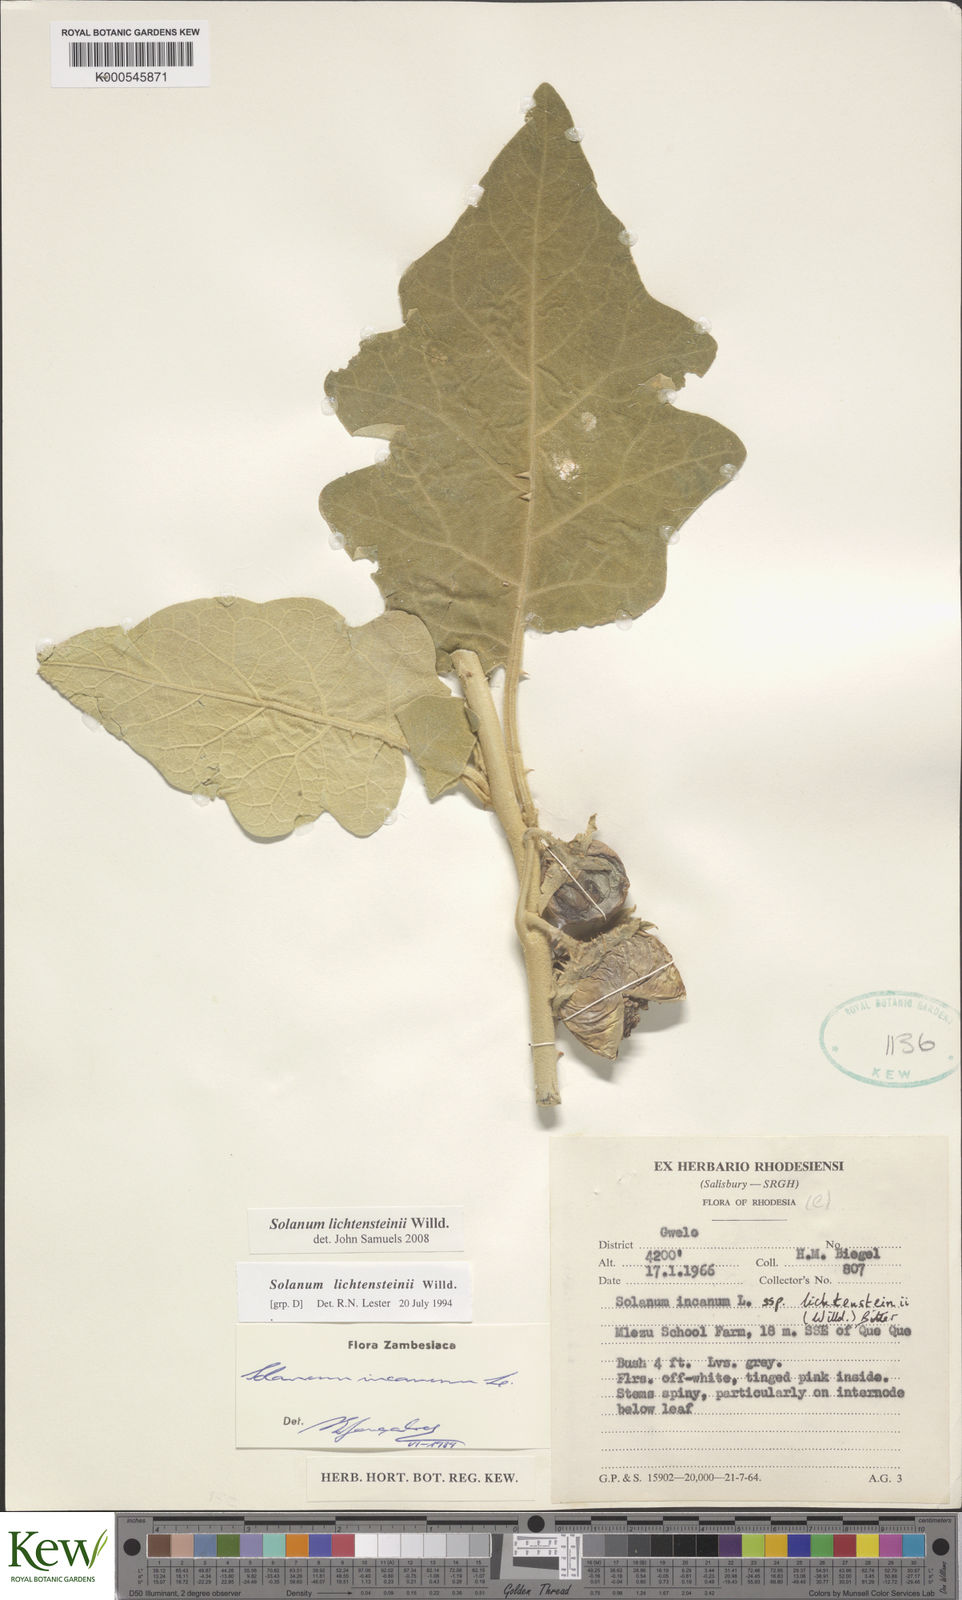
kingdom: Plantae
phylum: Tracheophyta
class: Magnoliopsida
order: Solanales
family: Solanaceae
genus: Solanum
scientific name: Solanum lichtensteinii
